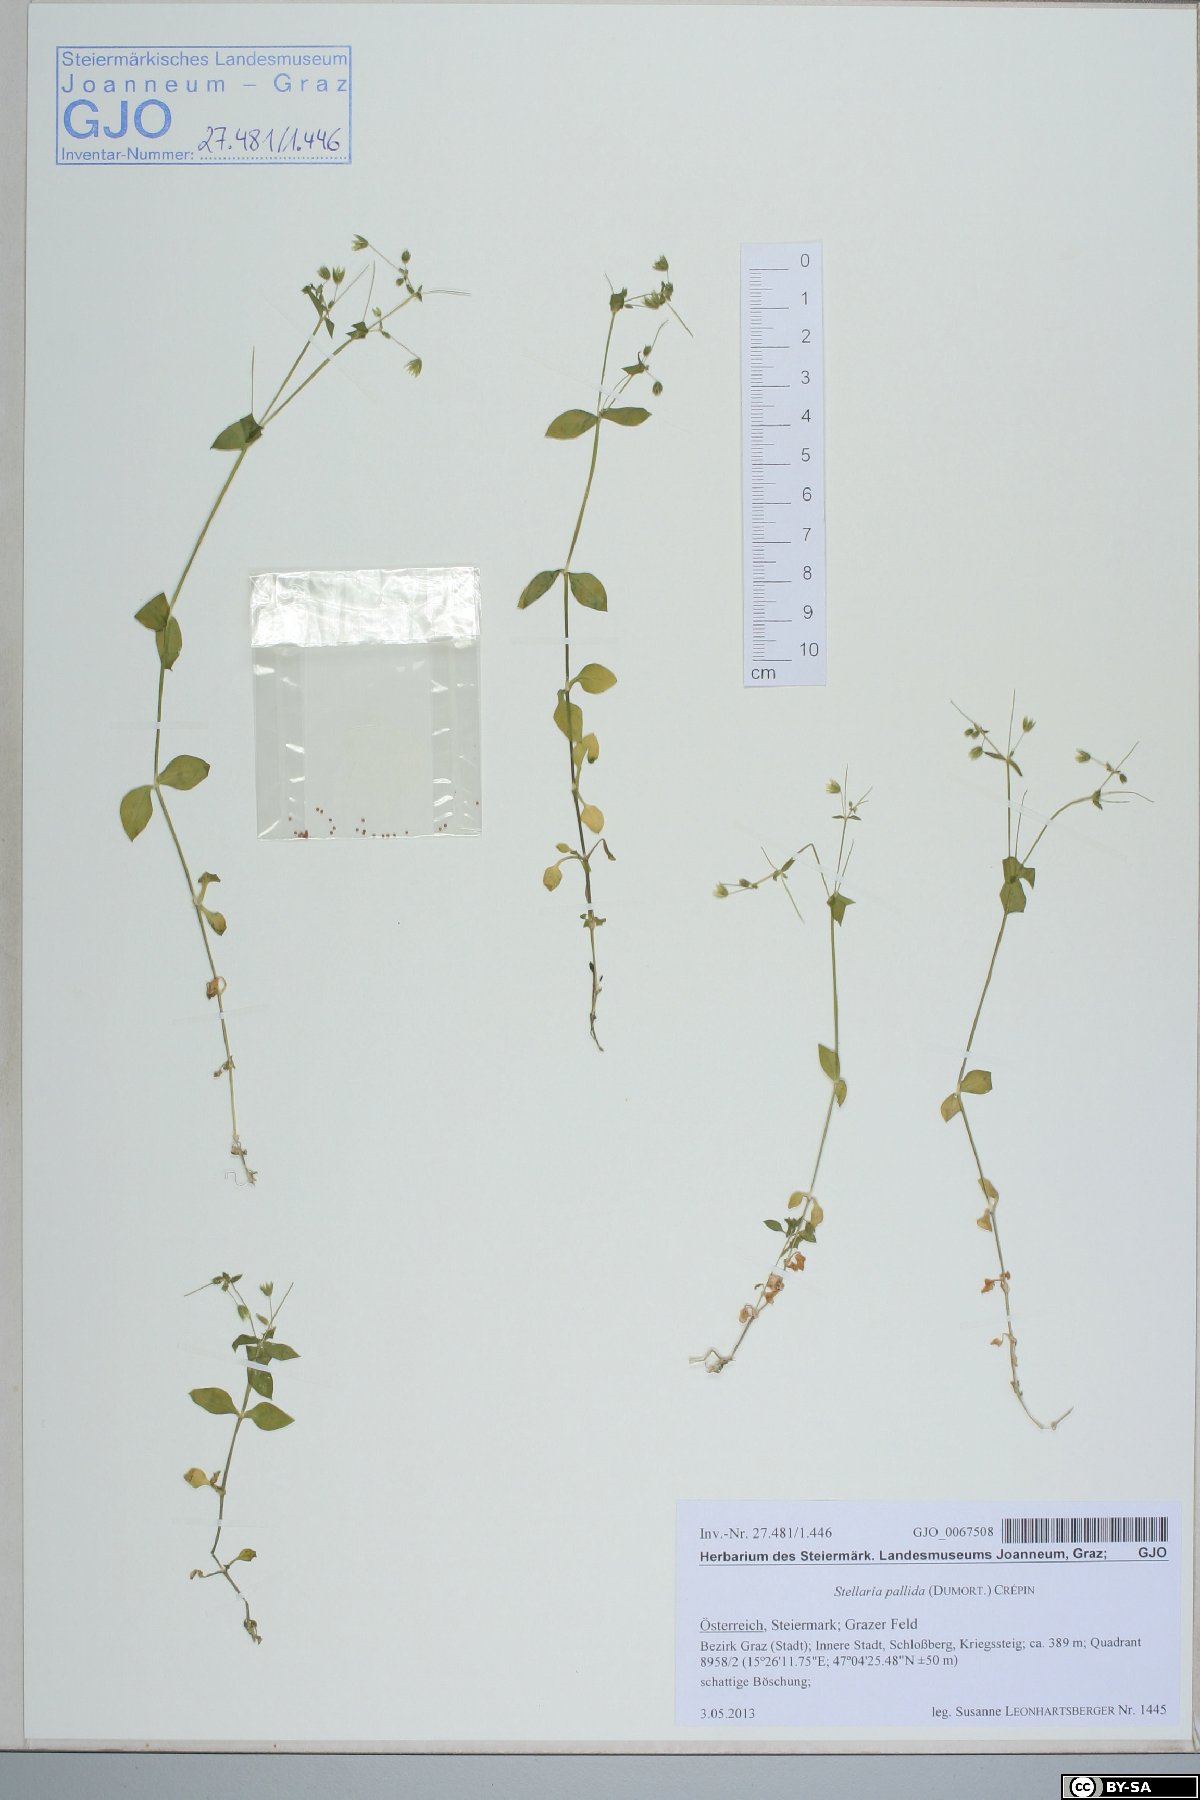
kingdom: Plantae
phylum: Tracheophyta
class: Magnoliopsida
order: Caryophyllales
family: Caryophyllaceae
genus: Stellaria
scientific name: Stellaria apetala
